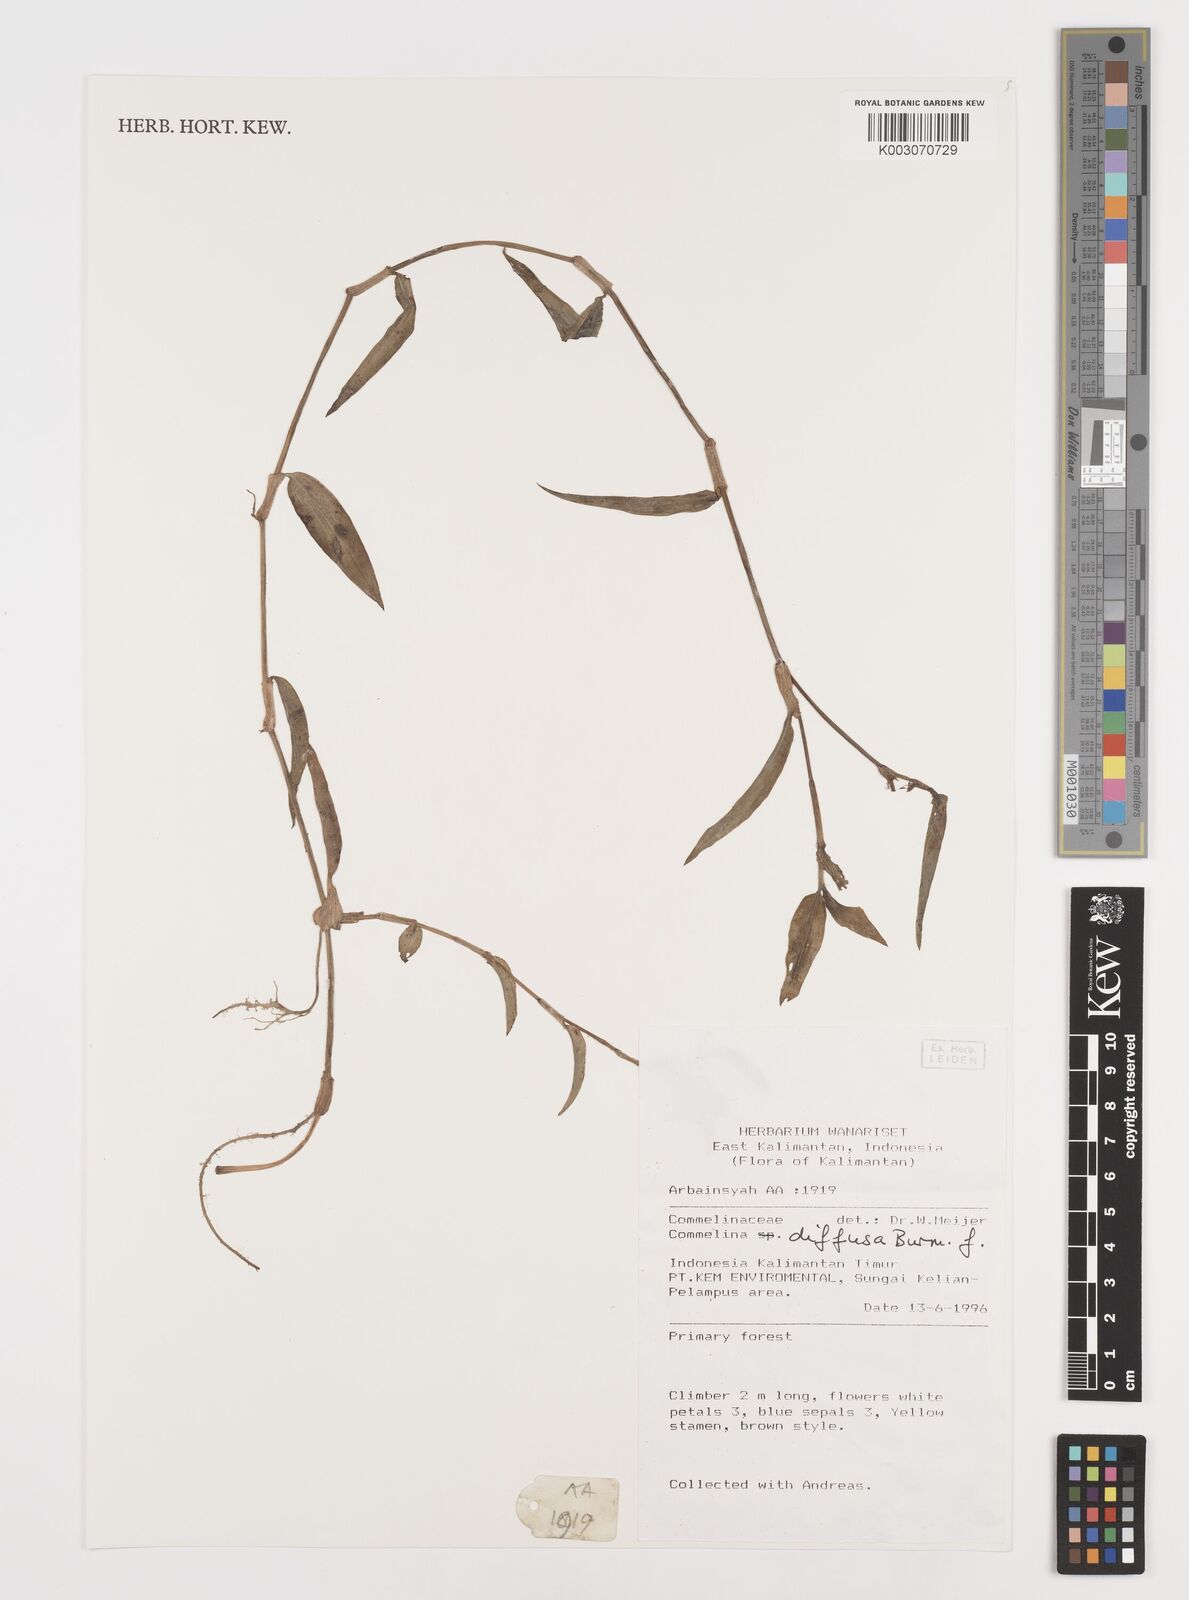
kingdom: Plantae
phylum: Tracheophyta
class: Liliopsida
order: Commelinales
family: Commelinaceae
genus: Commelina
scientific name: Commelina clavata
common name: Willow leaved dayflower
